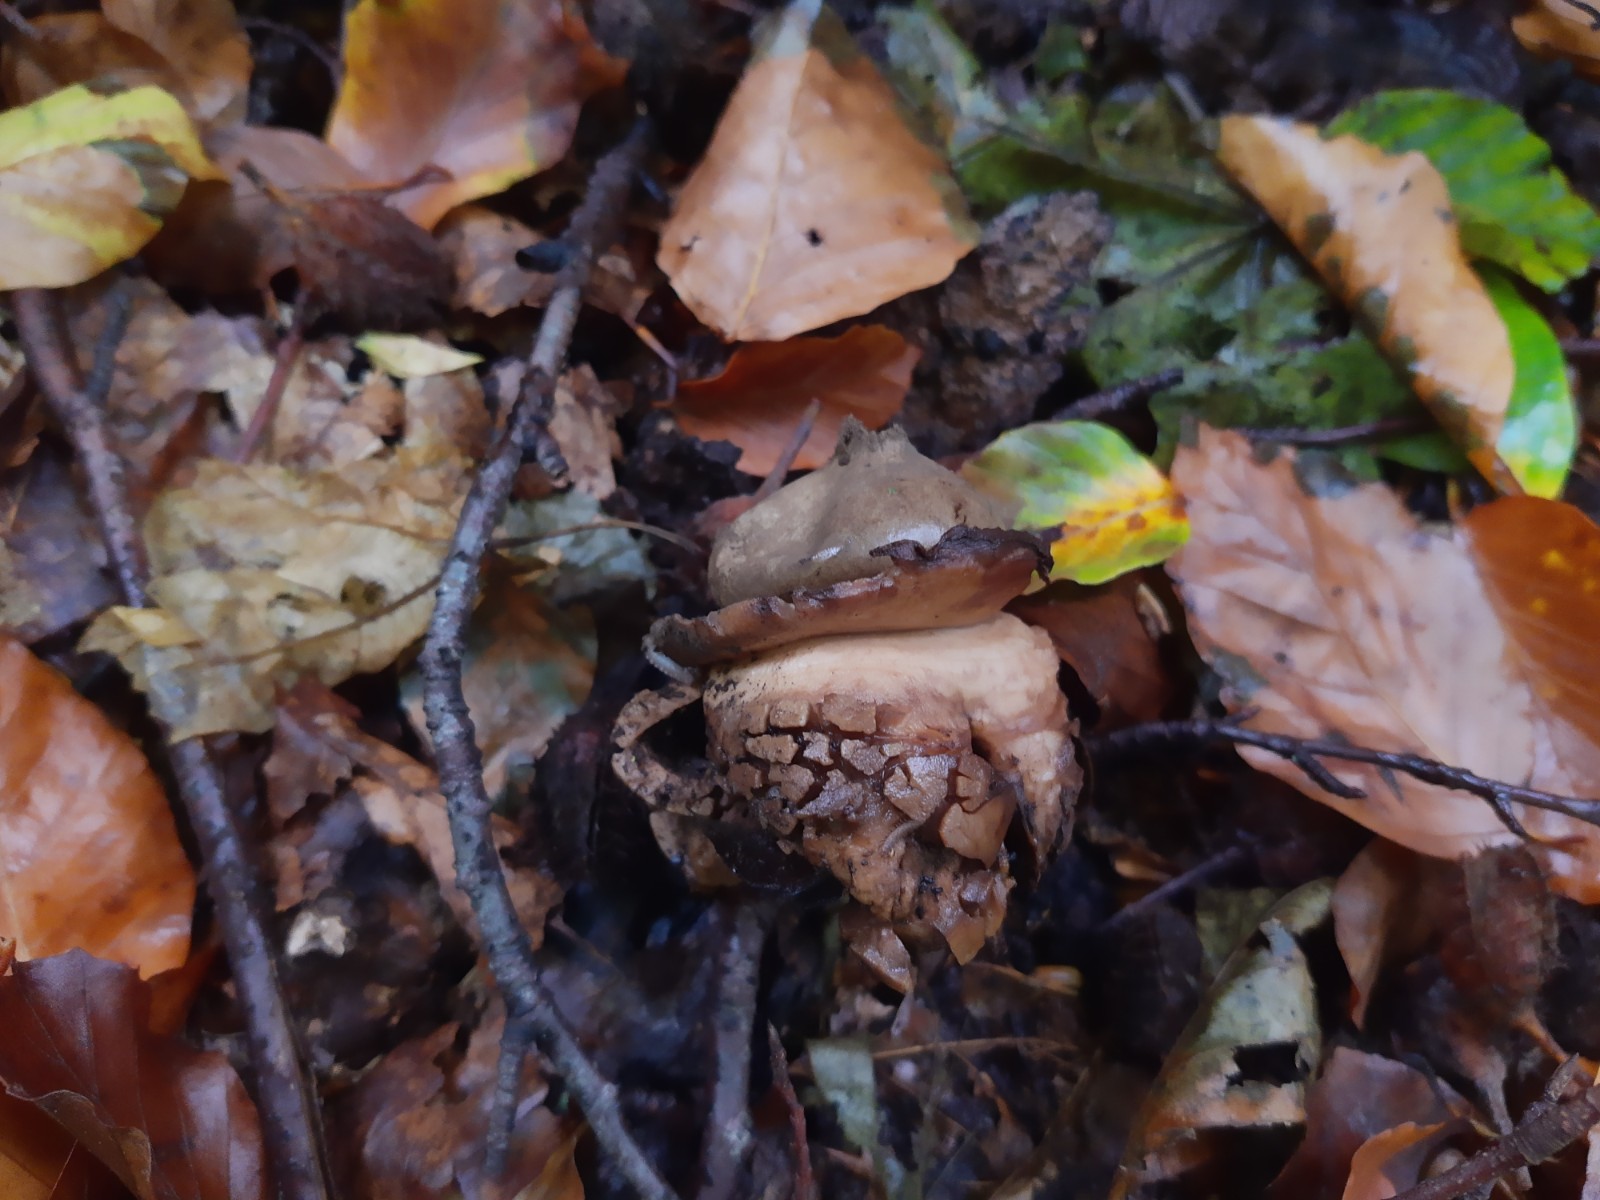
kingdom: Fungi
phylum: Basidiomycota
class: Agaricomycetes
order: Geastrales
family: Geastraceae
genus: Geastrum
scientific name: Geastrum michelianum
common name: kødet stjernebold
